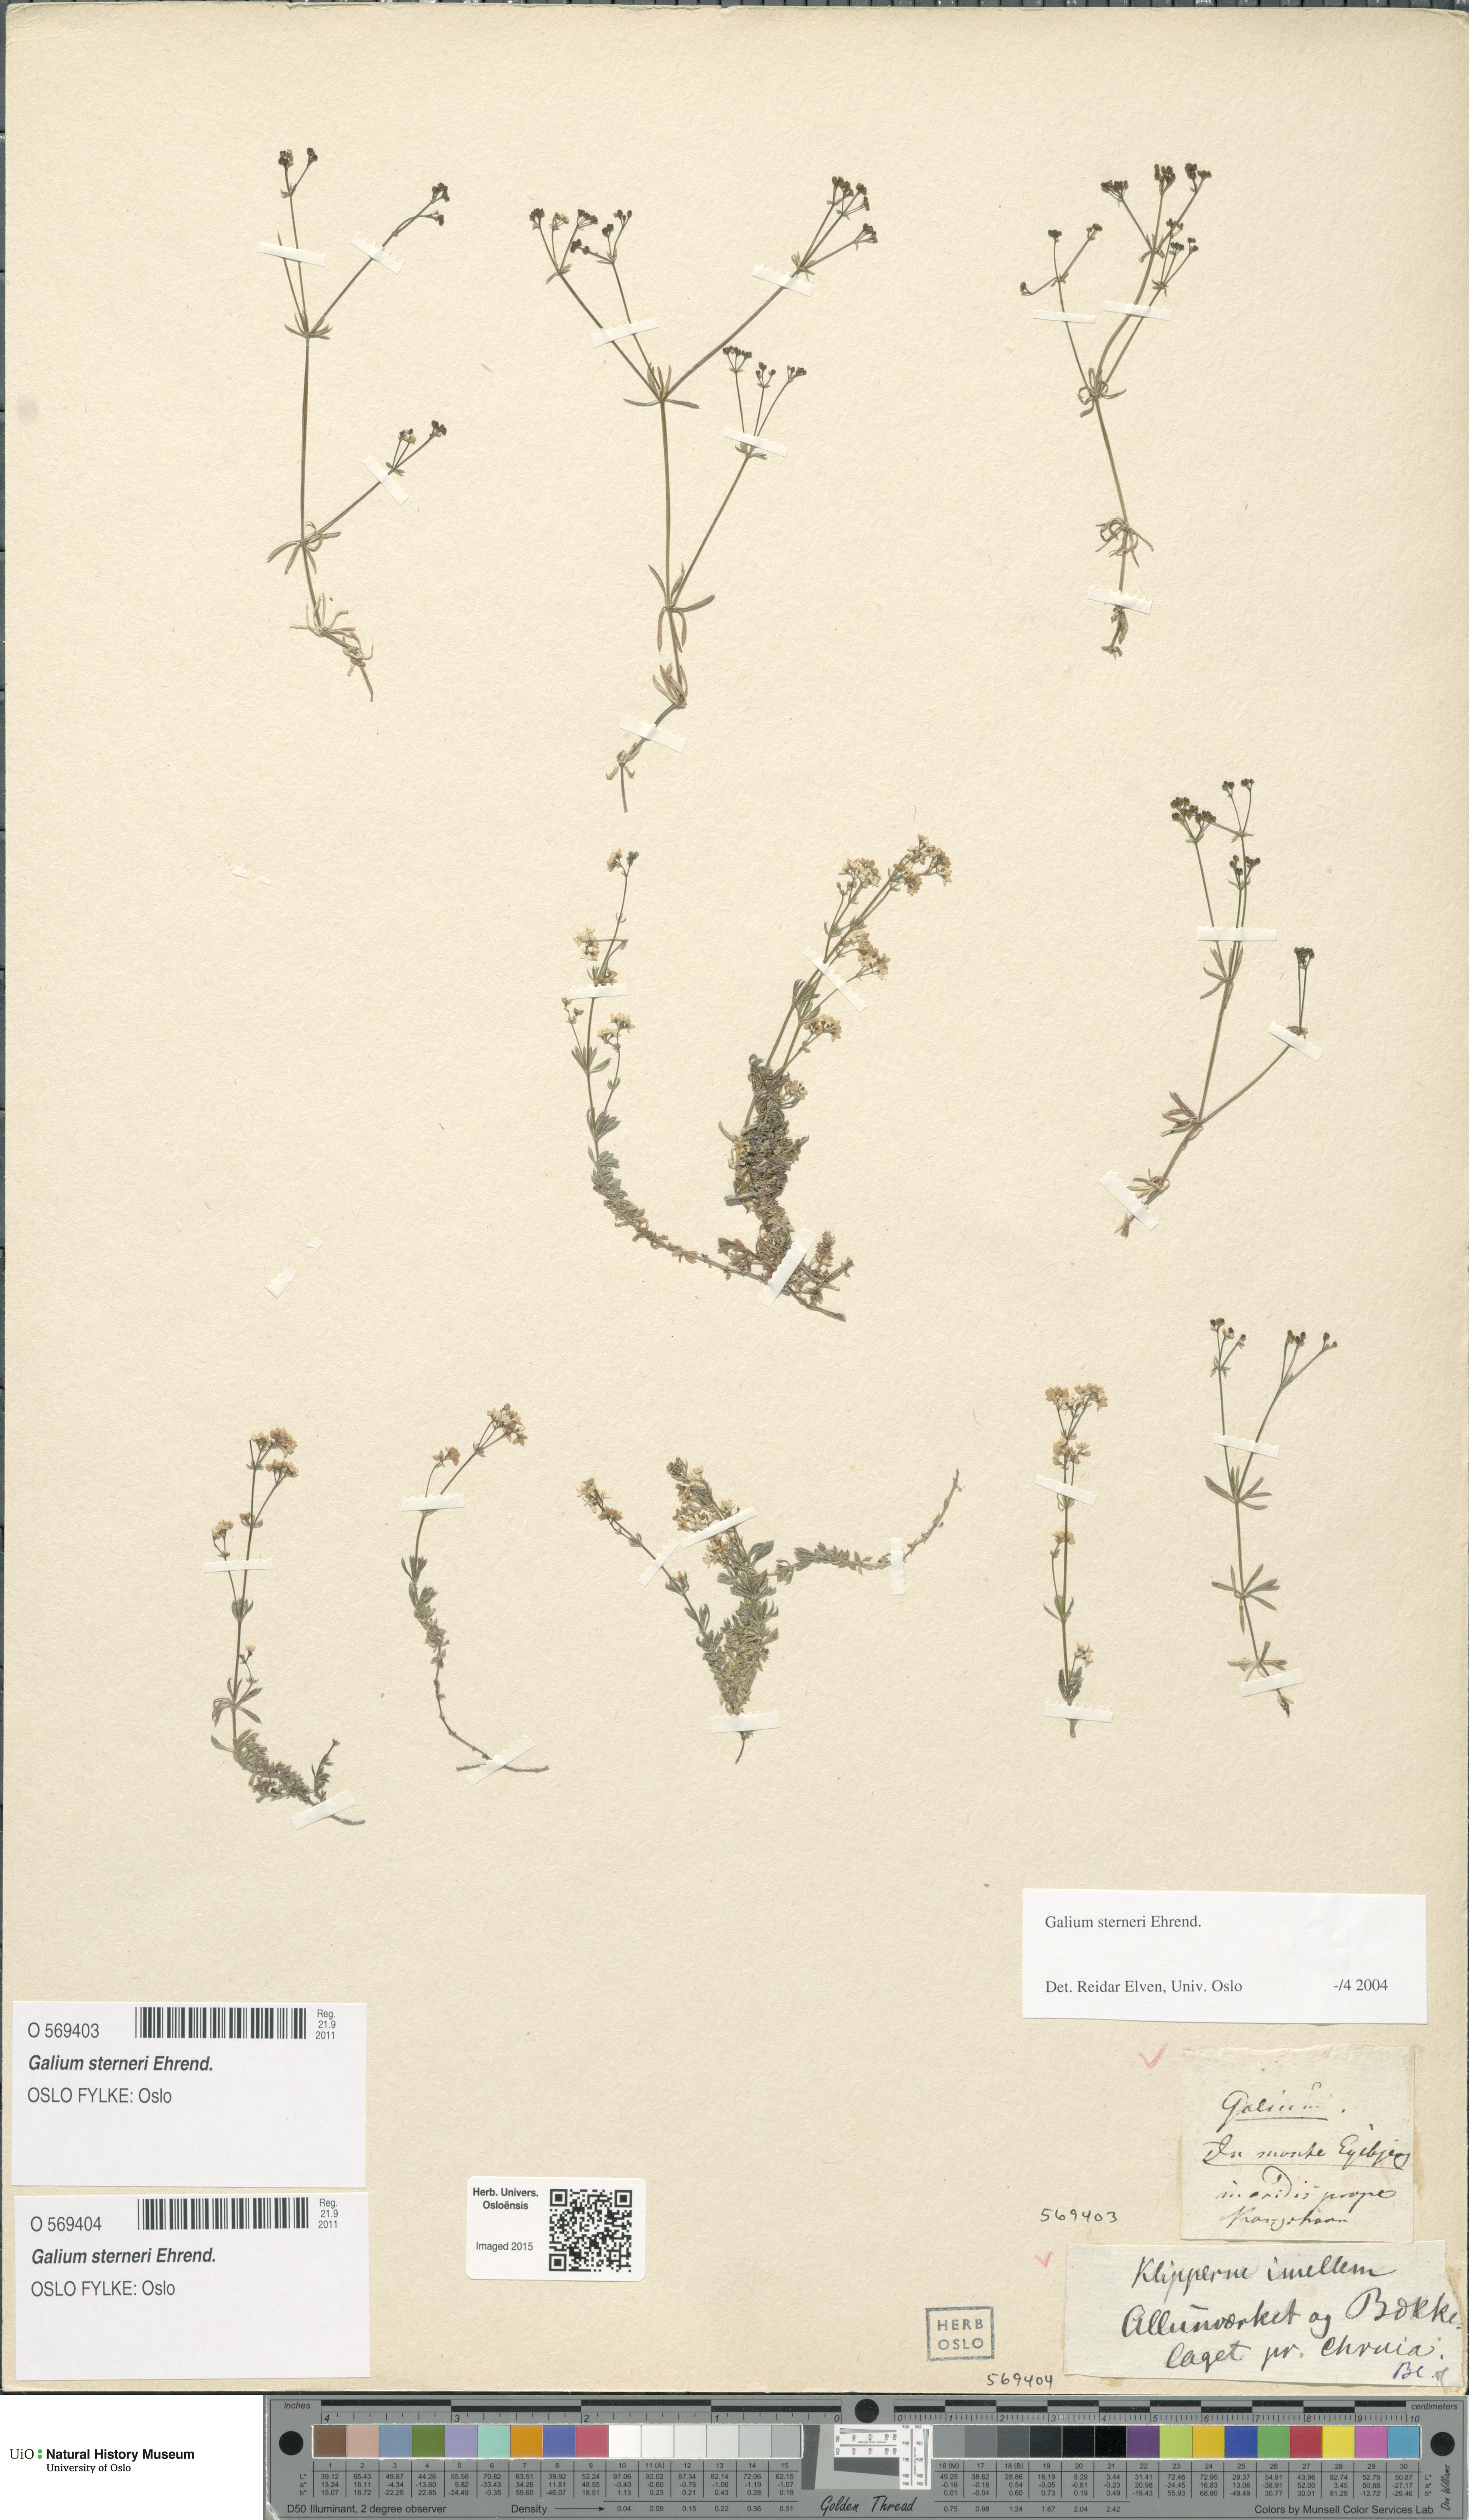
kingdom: Plantae
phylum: Tracheophyta
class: Magnoliopsida
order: Gentianales
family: Rubiaceae
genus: Galium
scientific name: Galium sterneri
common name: Limestone bedstraw
